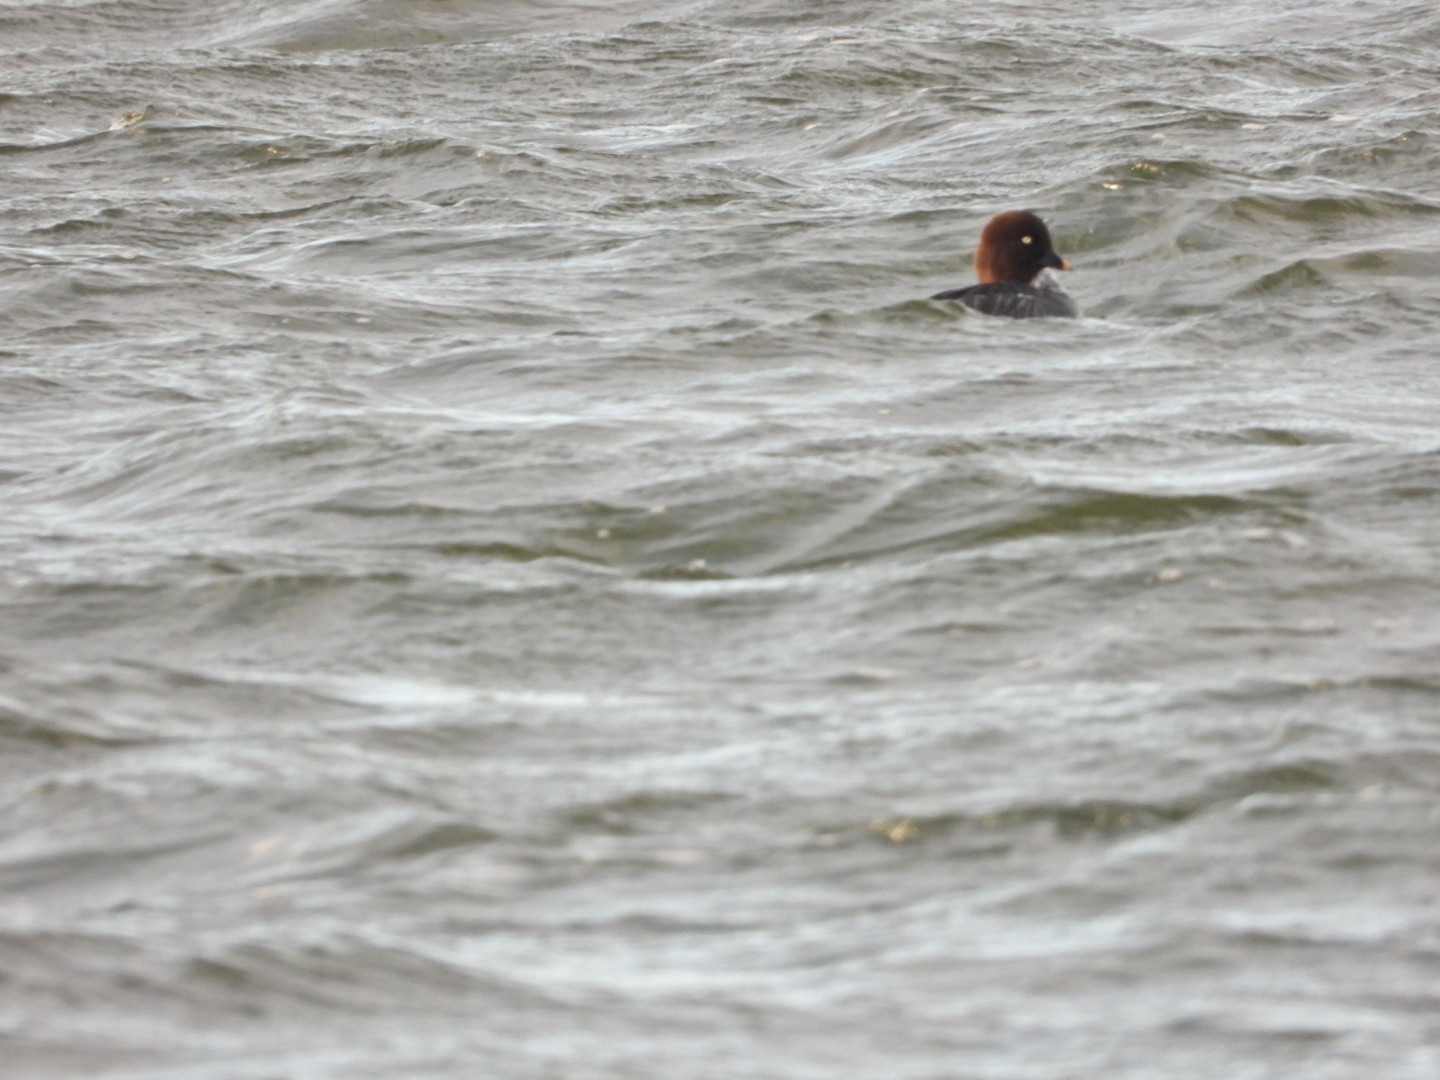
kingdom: Animalia
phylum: Chordata
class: Aves
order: Anseriformes
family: Anatidae
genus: Bucephala
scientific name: Bucephala clangula
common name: Hvinand
